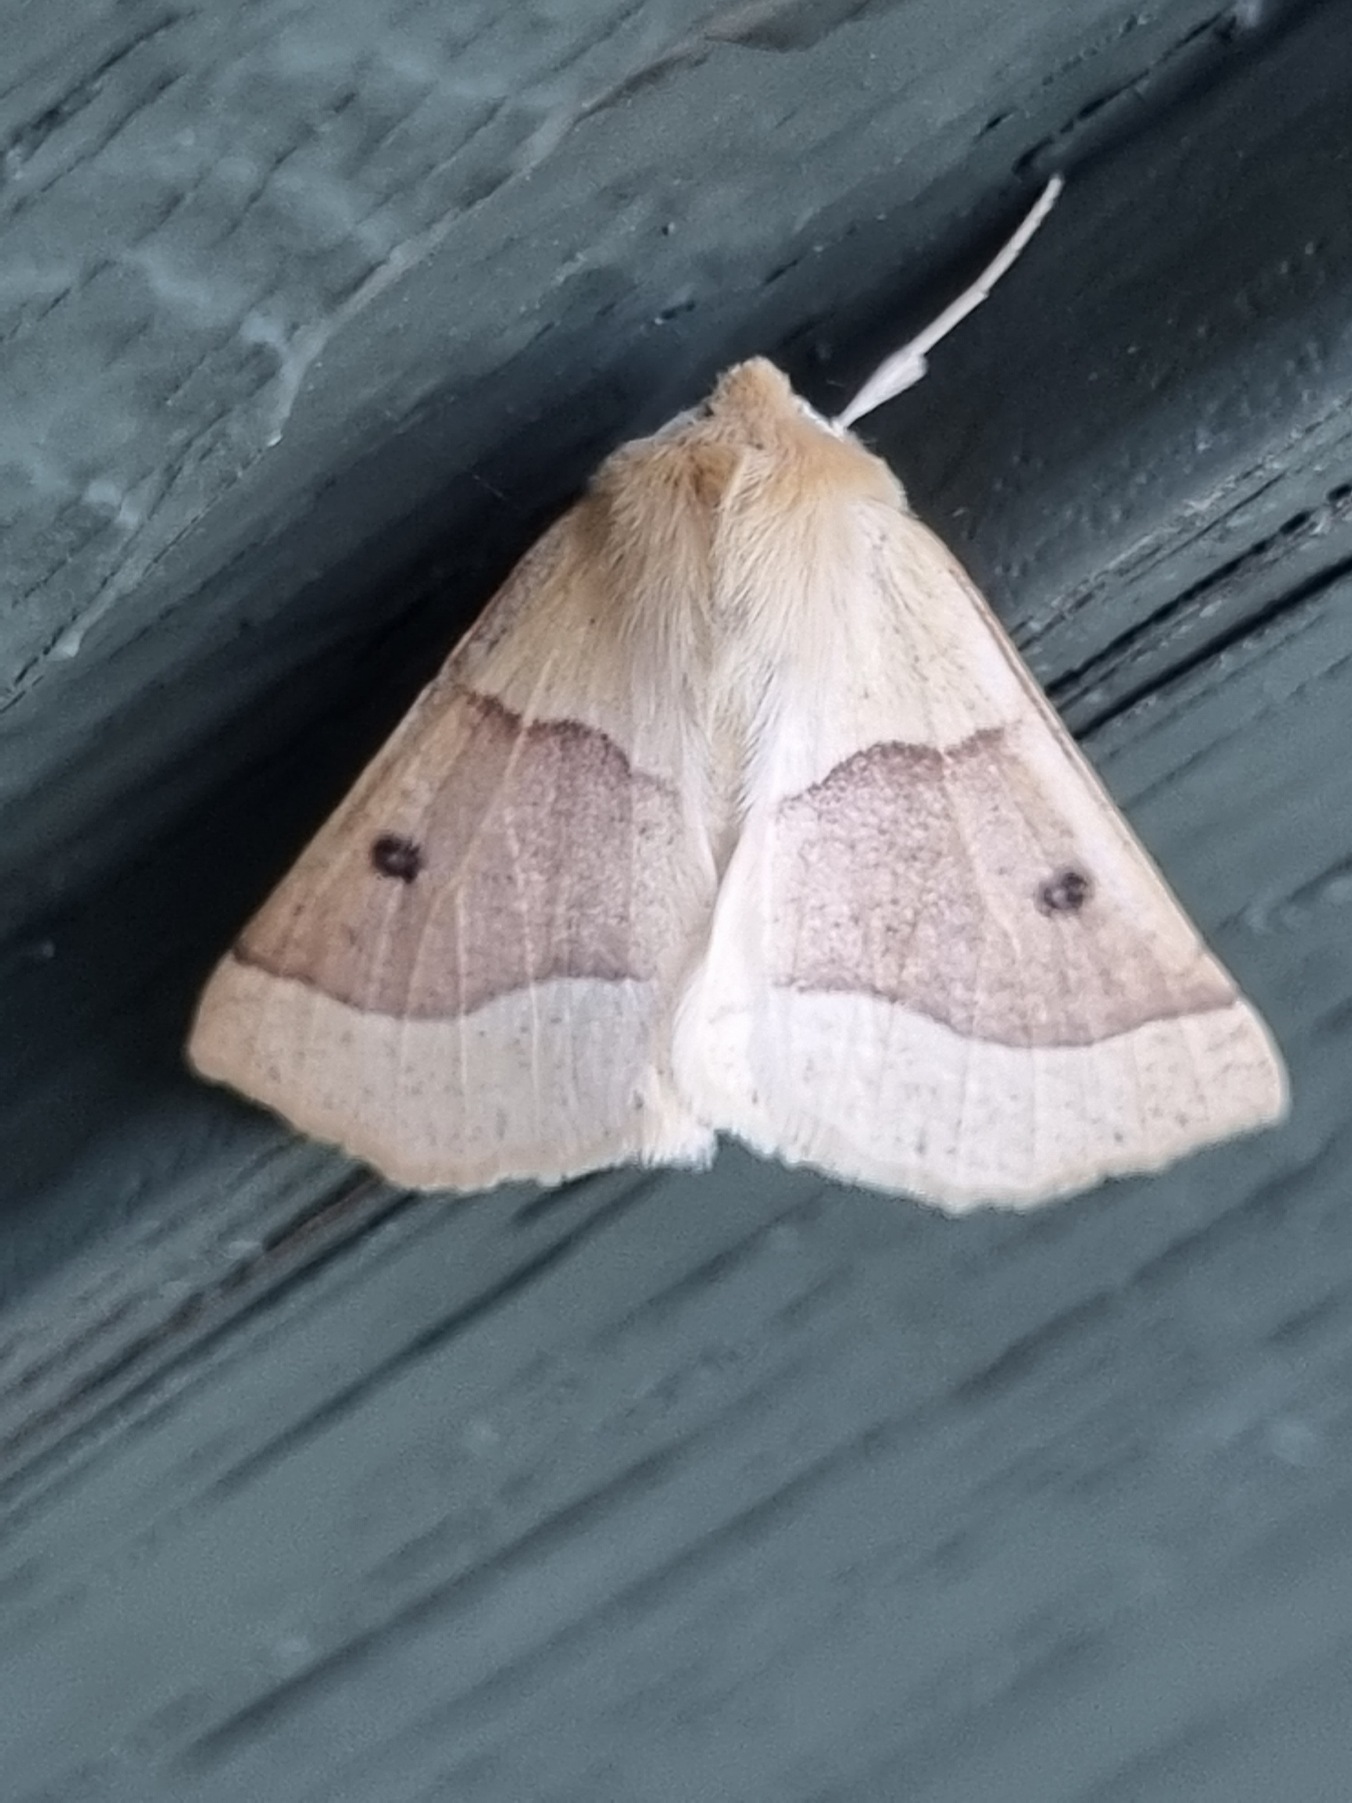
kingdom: Animalia
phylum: Arthropoda
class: Insecta
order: Lepidoptera
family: Geometridae
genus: Crocallis
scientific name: Crocallis elinguaria
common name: Okkergul rovmåler
